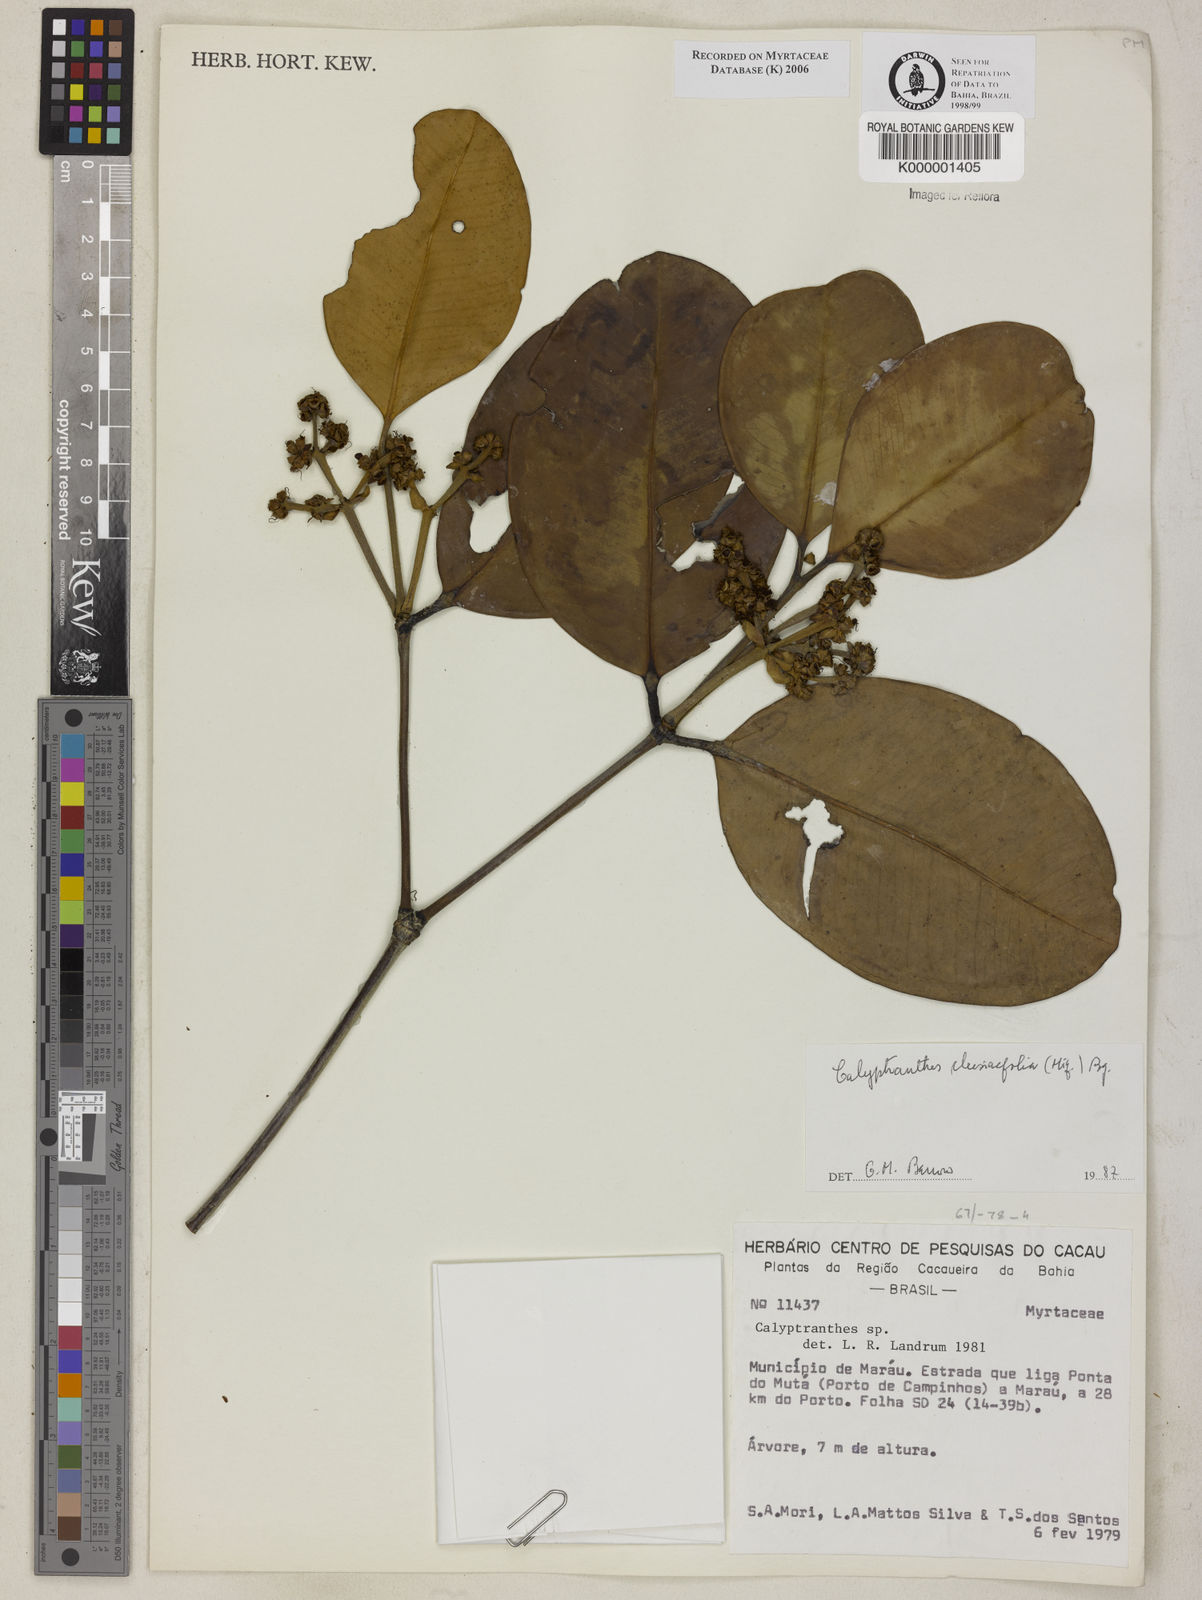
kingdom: Plantae
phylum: Tracheophyta
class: Magnoliopsida
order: Myrtales
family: Myrtaceae
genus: Myrcia
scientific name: Myrcia neoclusiifolia
